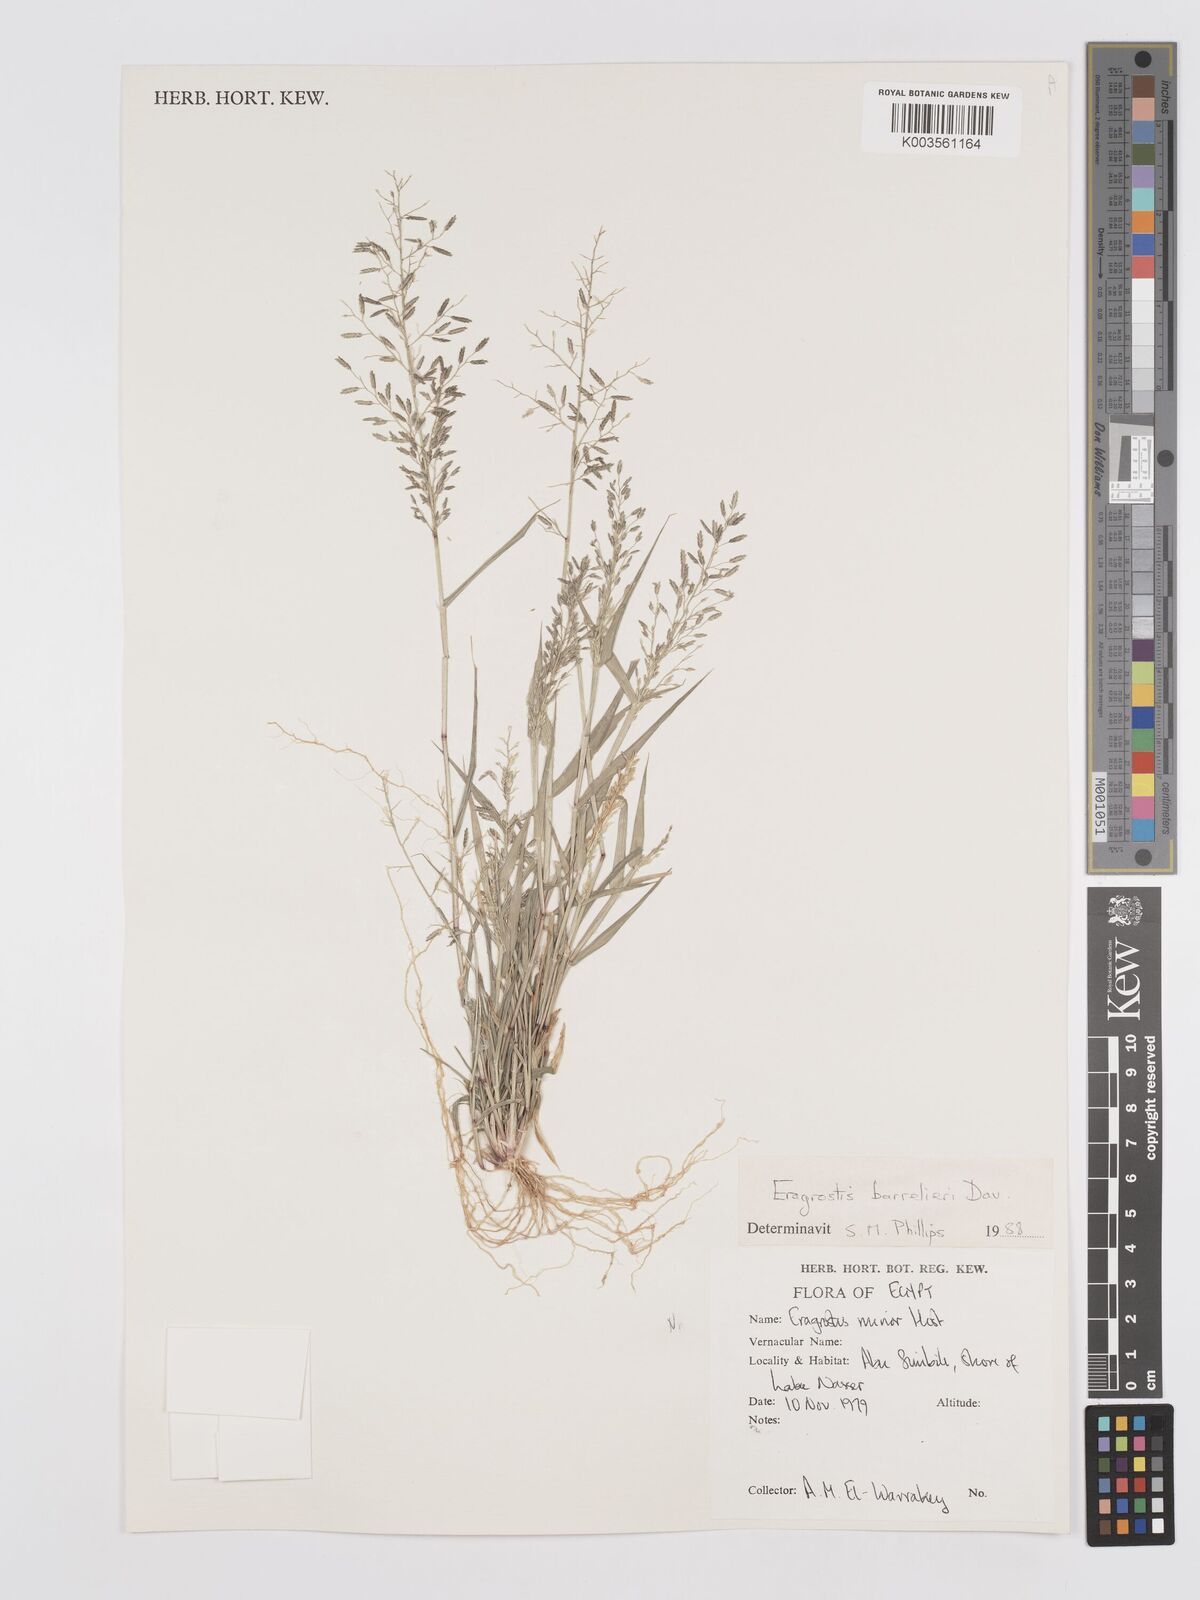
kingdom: Plantae
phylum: Tracheophyta
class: Liliopsida
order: Poales
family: Poaceae
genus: Eragrostis
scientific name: Eragrostis barrelieri
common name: Mediterranean lovegrass
